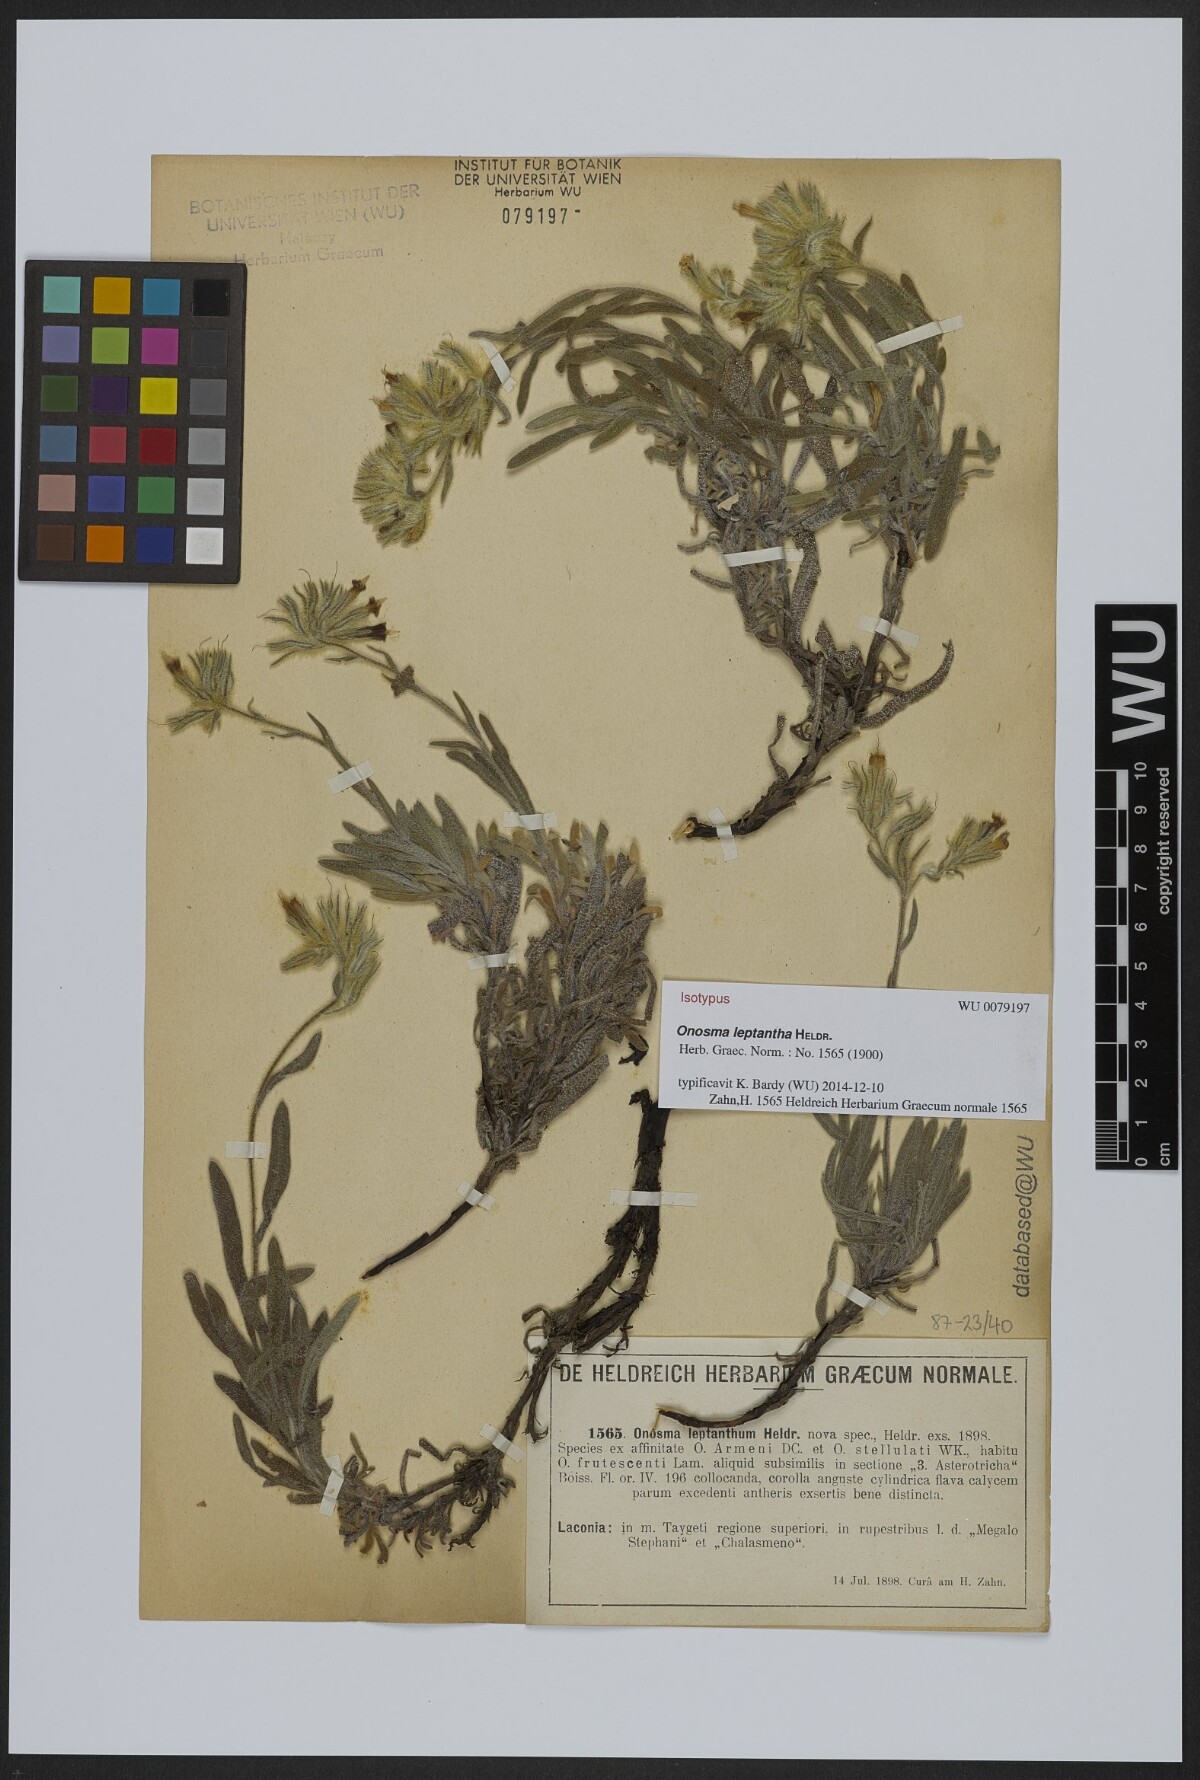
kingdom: Plantae
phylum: Tracheophyta
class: Magnoliopsida
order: Boraginales
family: Boraginaceae
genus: Onosma
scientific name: Onosma leptantha
